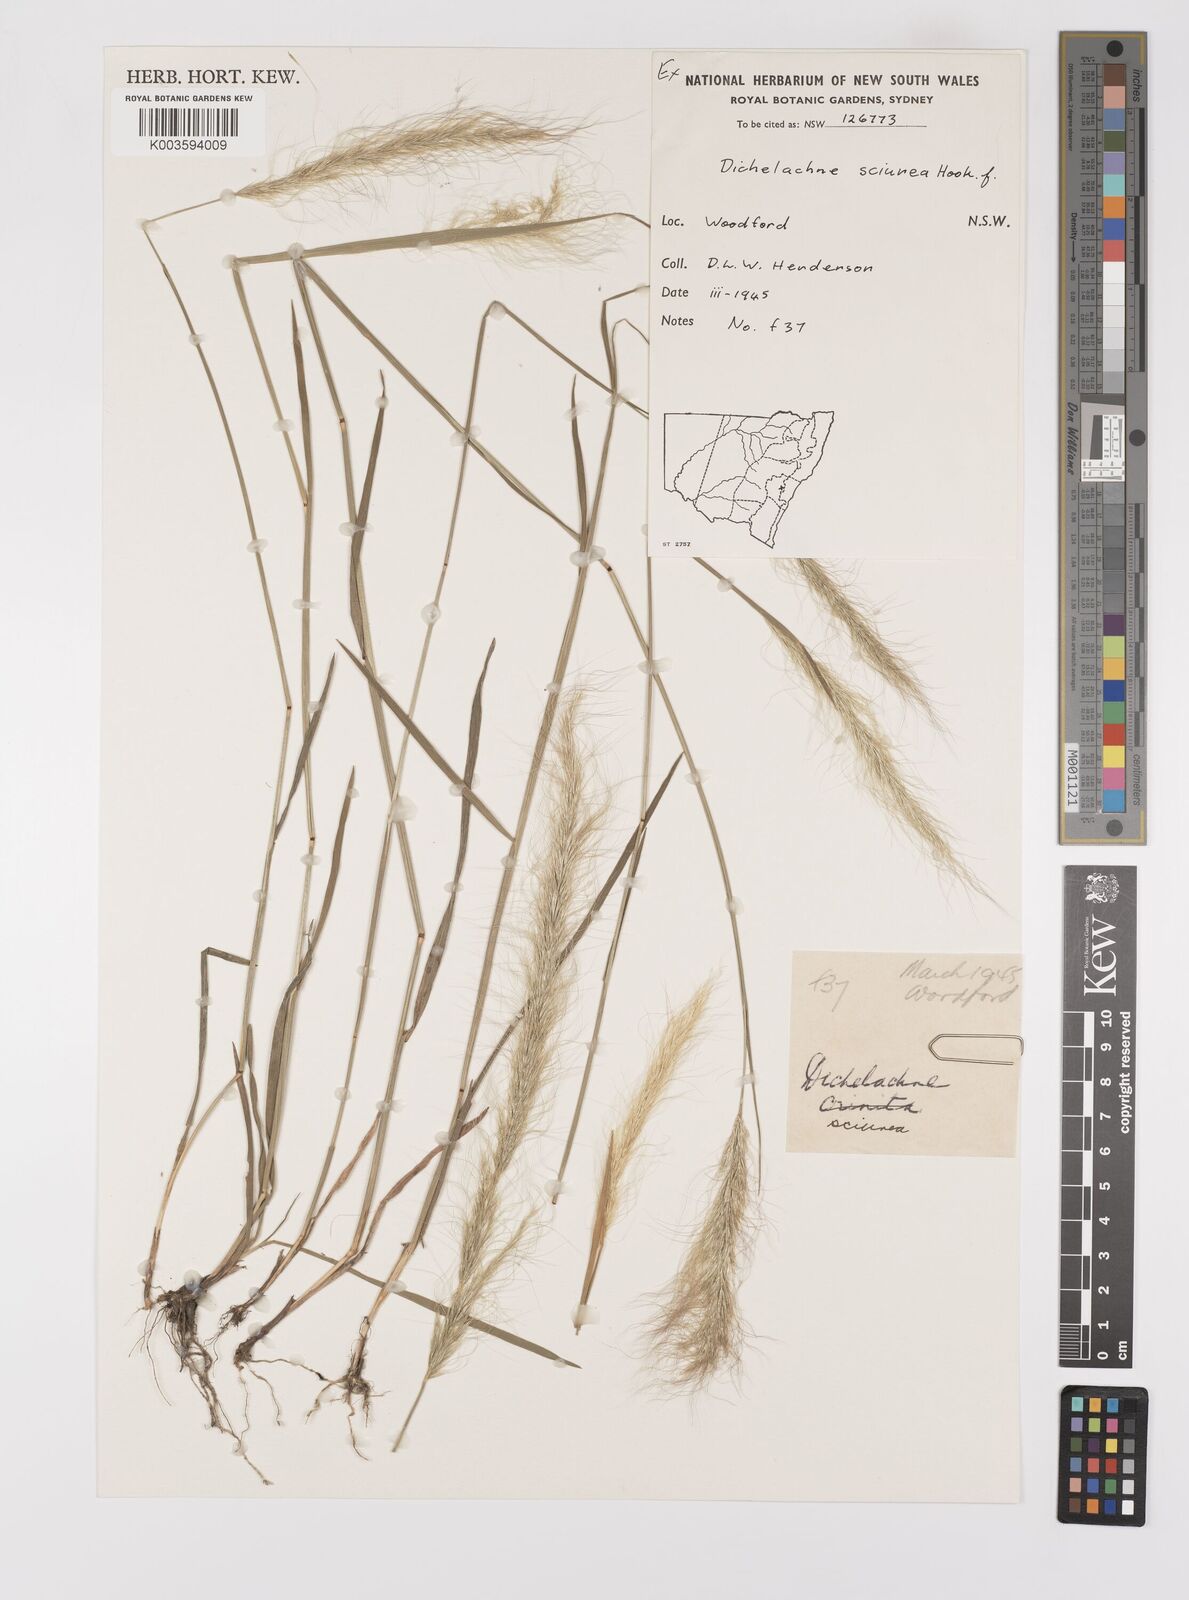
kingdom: Plantae
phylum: Tracheophyta
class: Liliopsida
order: Poales
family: Poaceae
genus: Dichelachne
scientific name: Dichelachne micrantha
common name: Plumegrass
